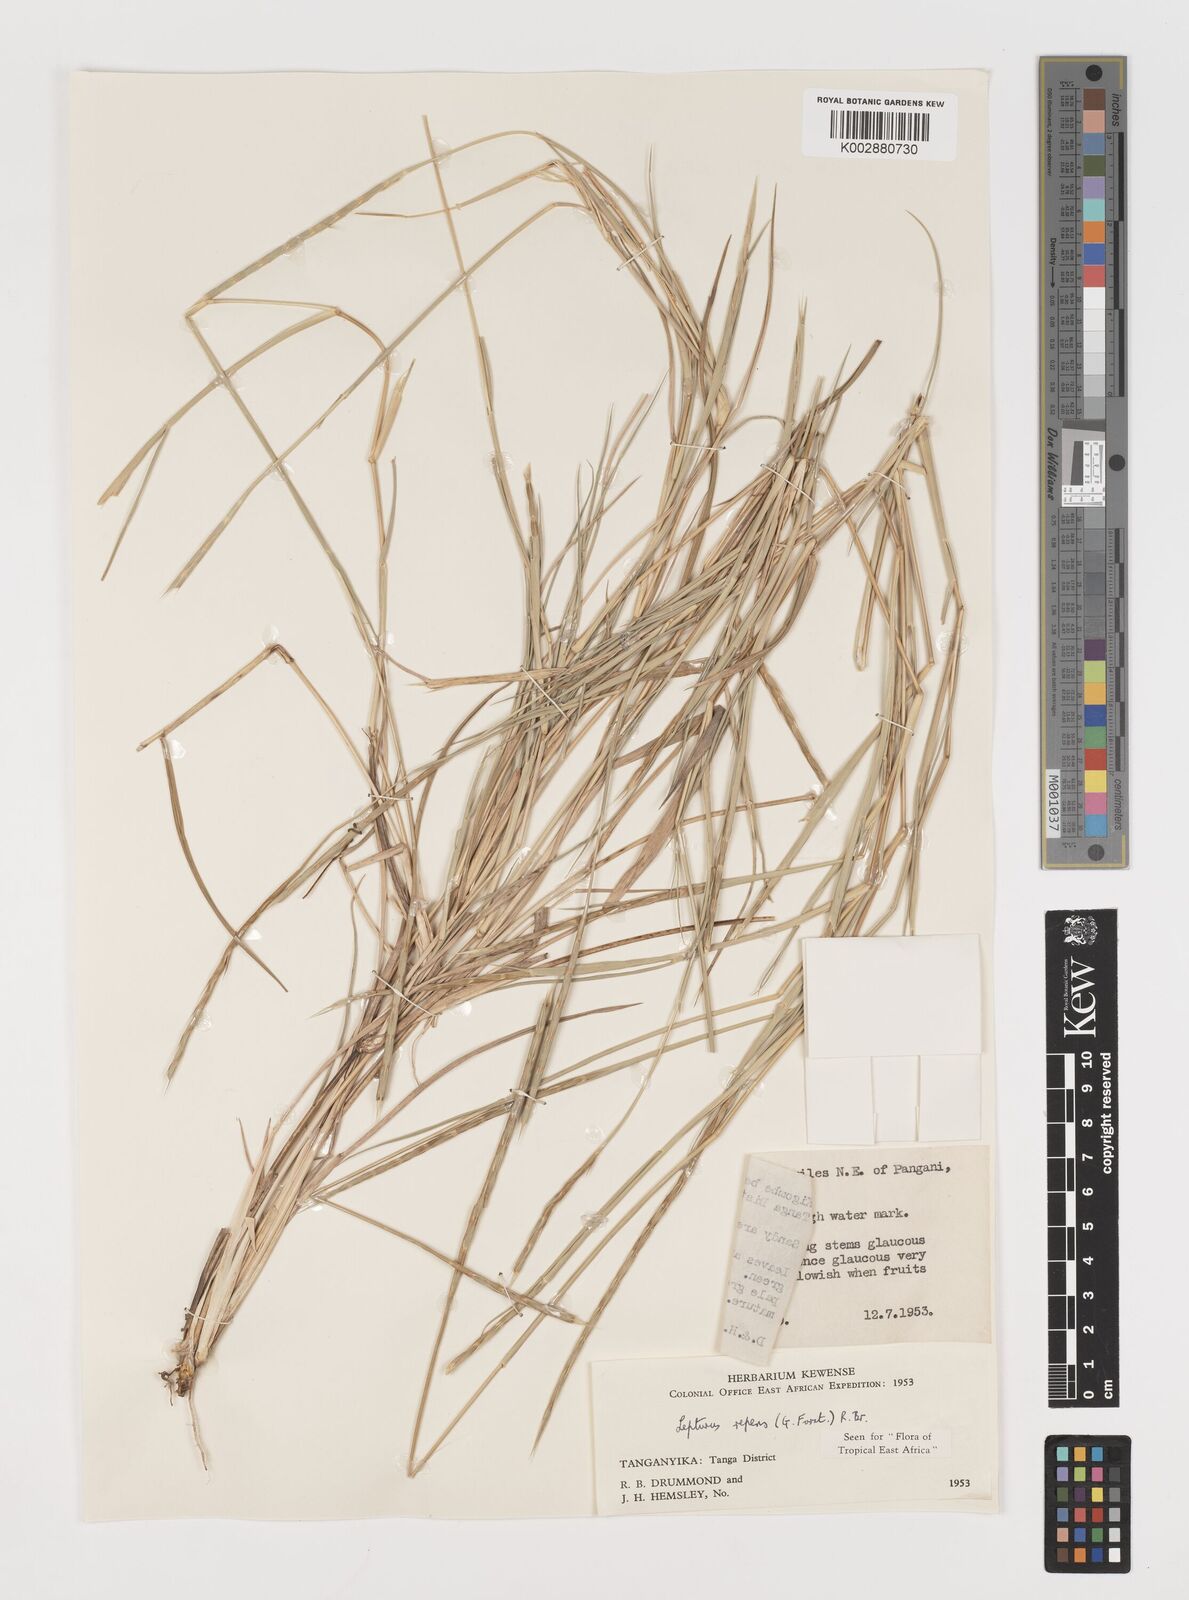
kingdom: Plantae
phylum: Tracheophyta
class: Liliopsida
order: Poales
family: Poaceae
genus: Lepturus
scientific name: Lepturus repens
